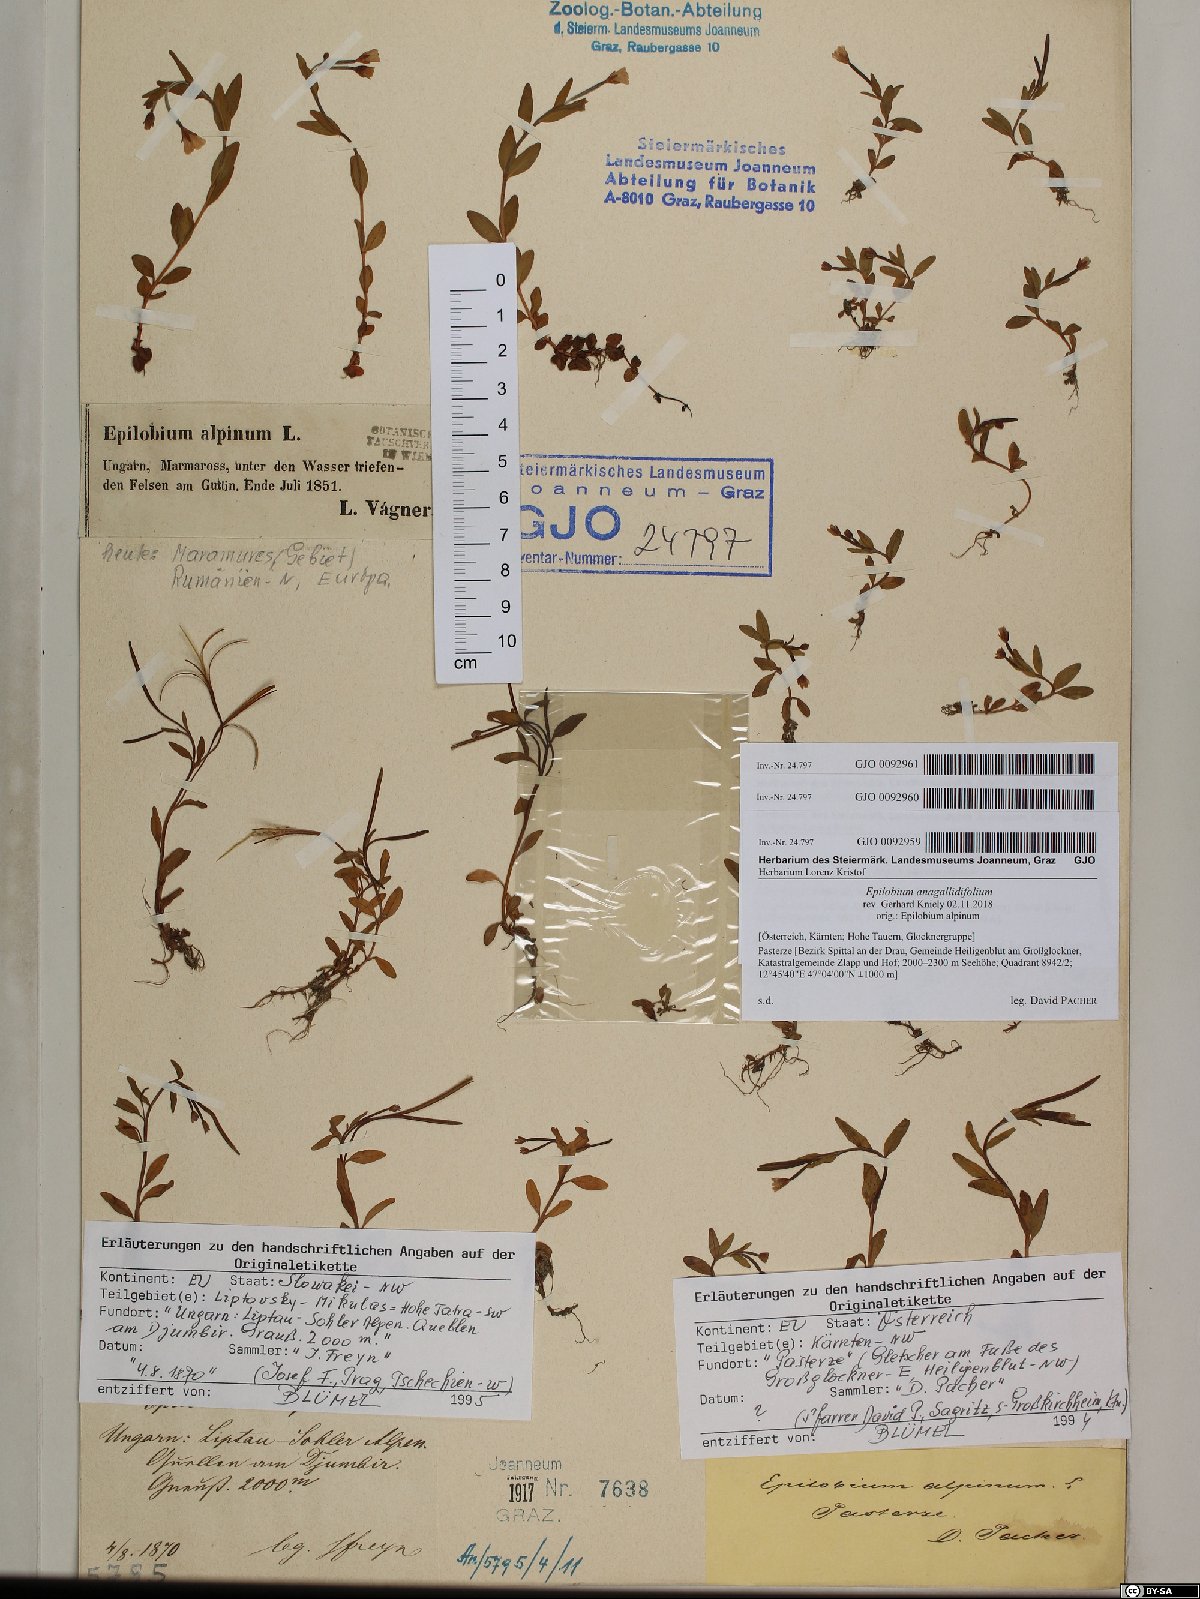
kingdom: Plantae
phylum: Tracheophyta
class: Magnoliopsida
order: Myrtales
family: Onagraceae
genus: Epilobium
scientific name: Epilobium anagallidifolium
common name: Alpine willowherb
